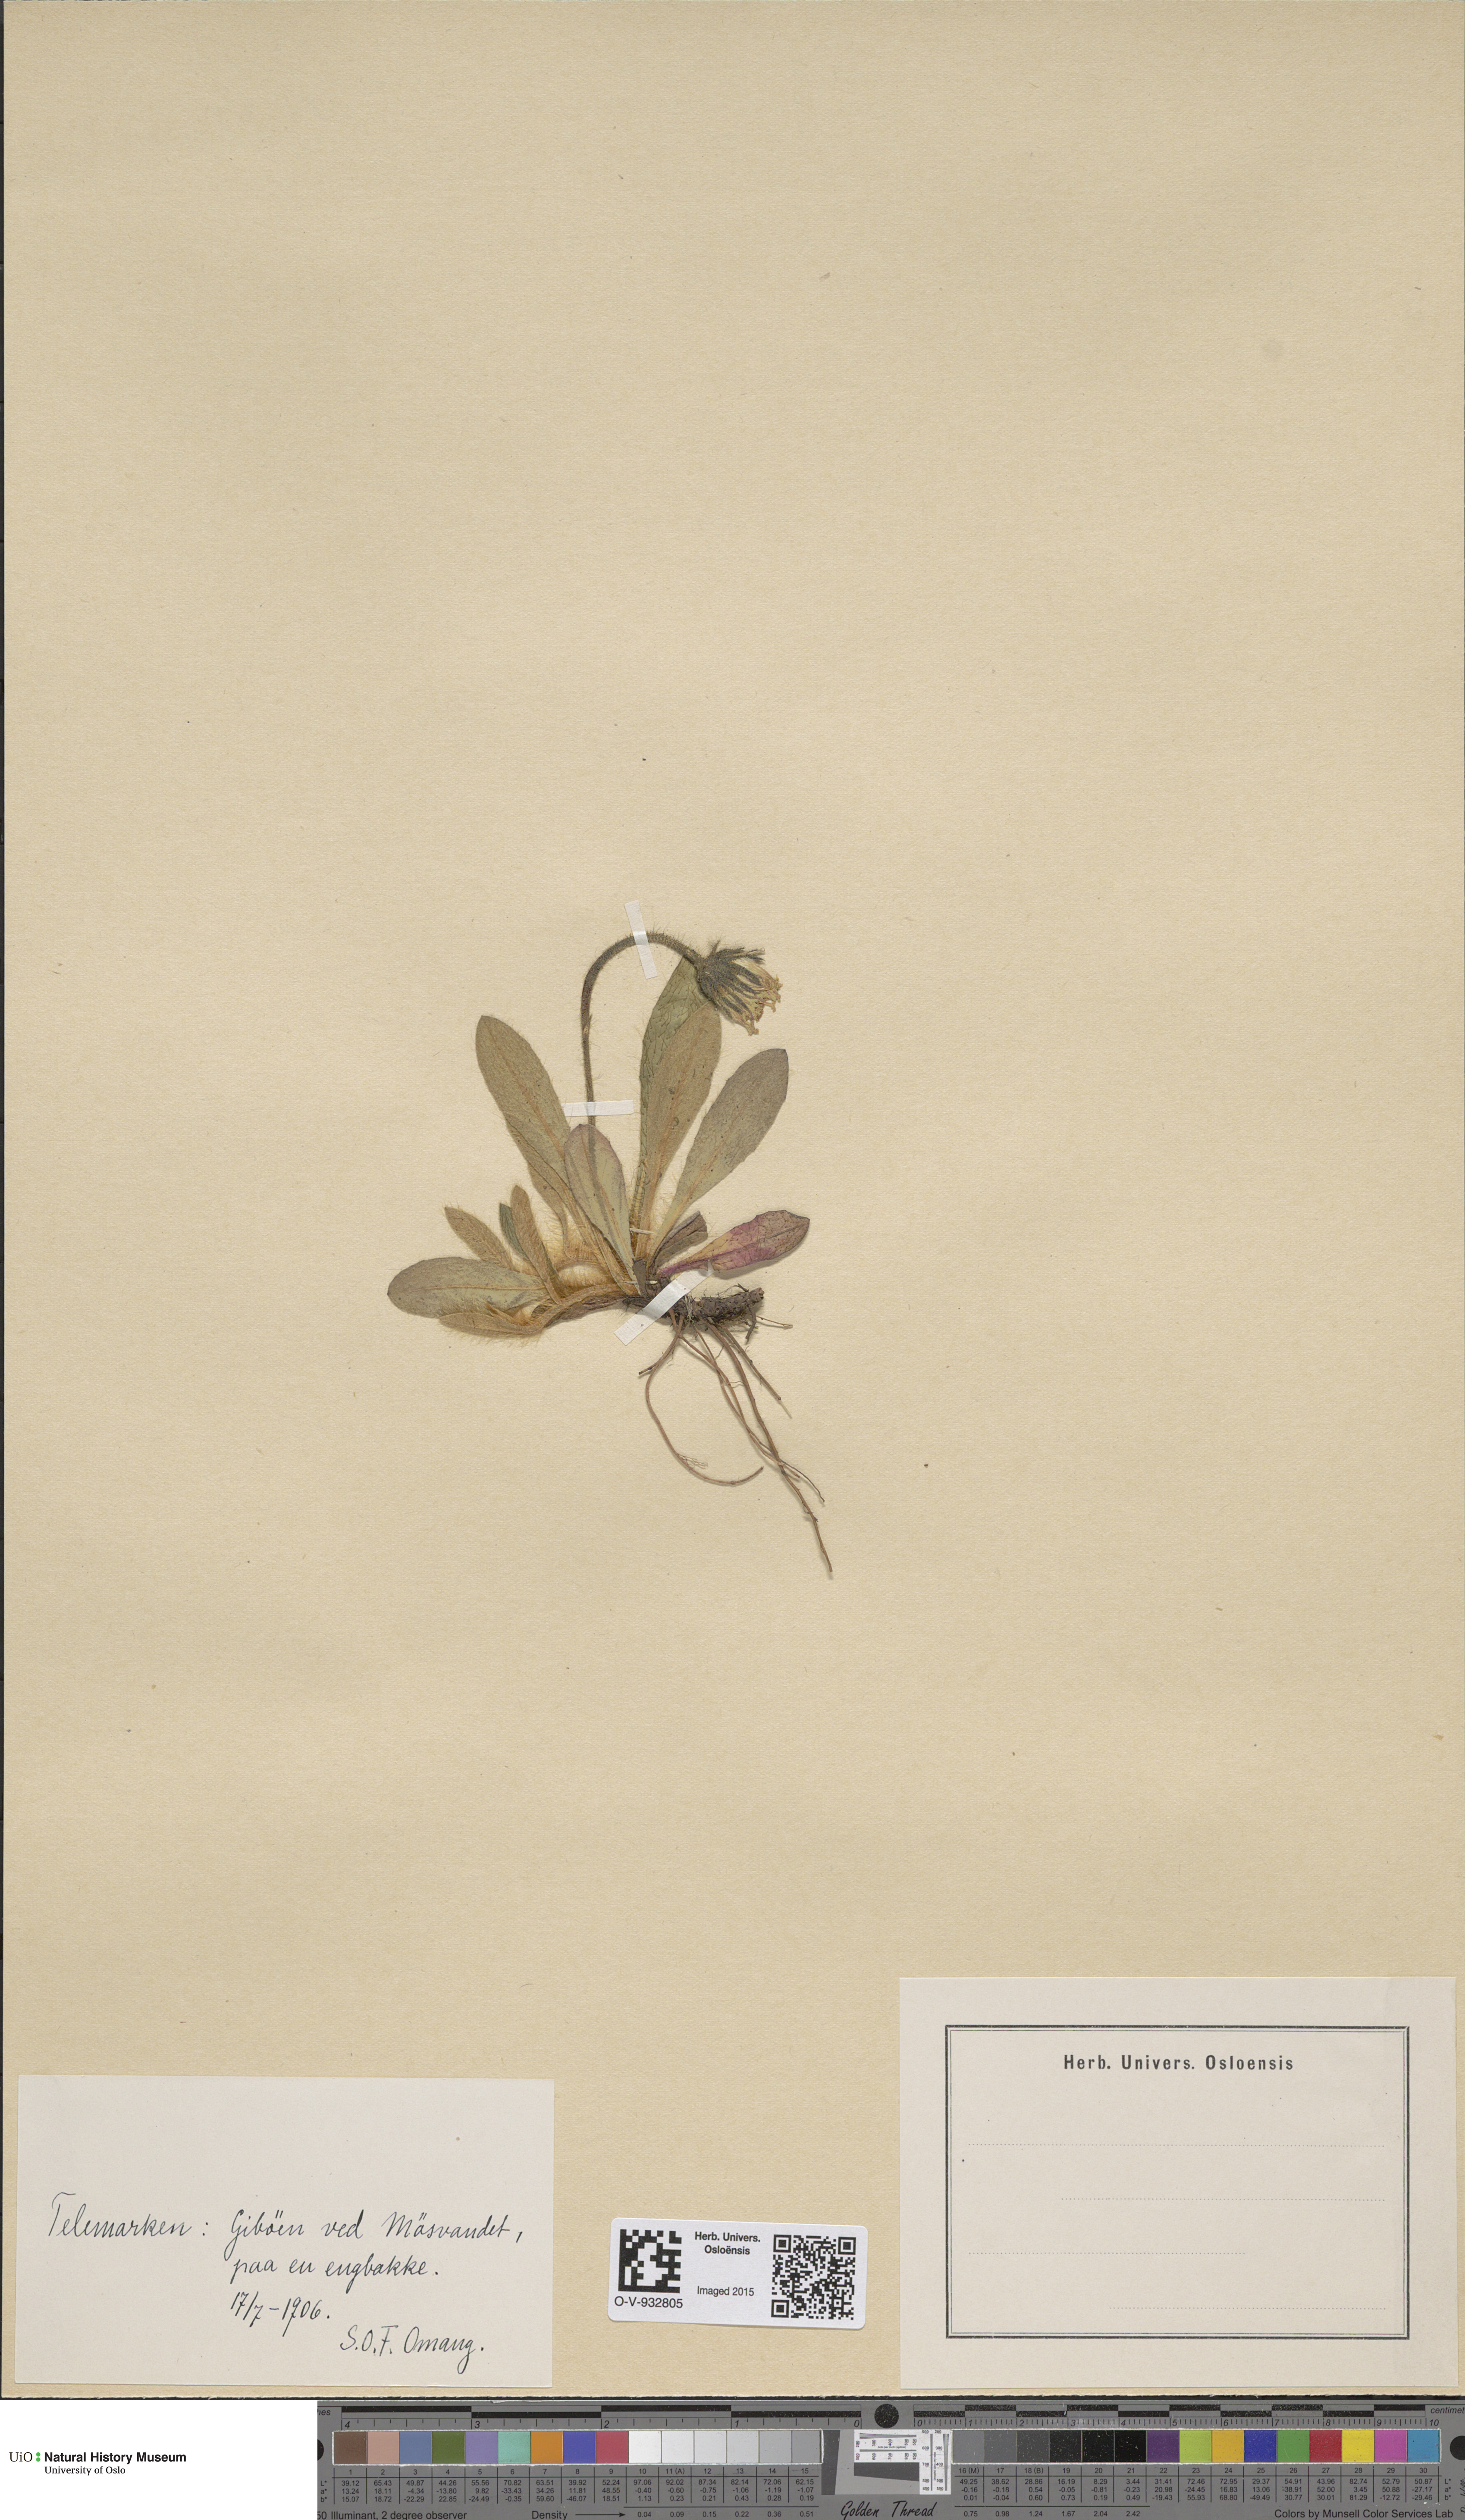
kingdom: Plantae
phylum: Tracheophyta
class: Magnoliopsida
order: Asterales
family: Asteraceae
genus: Pilosella
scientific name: Pilosella officinarum
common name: Mouse-ear hawkweed
